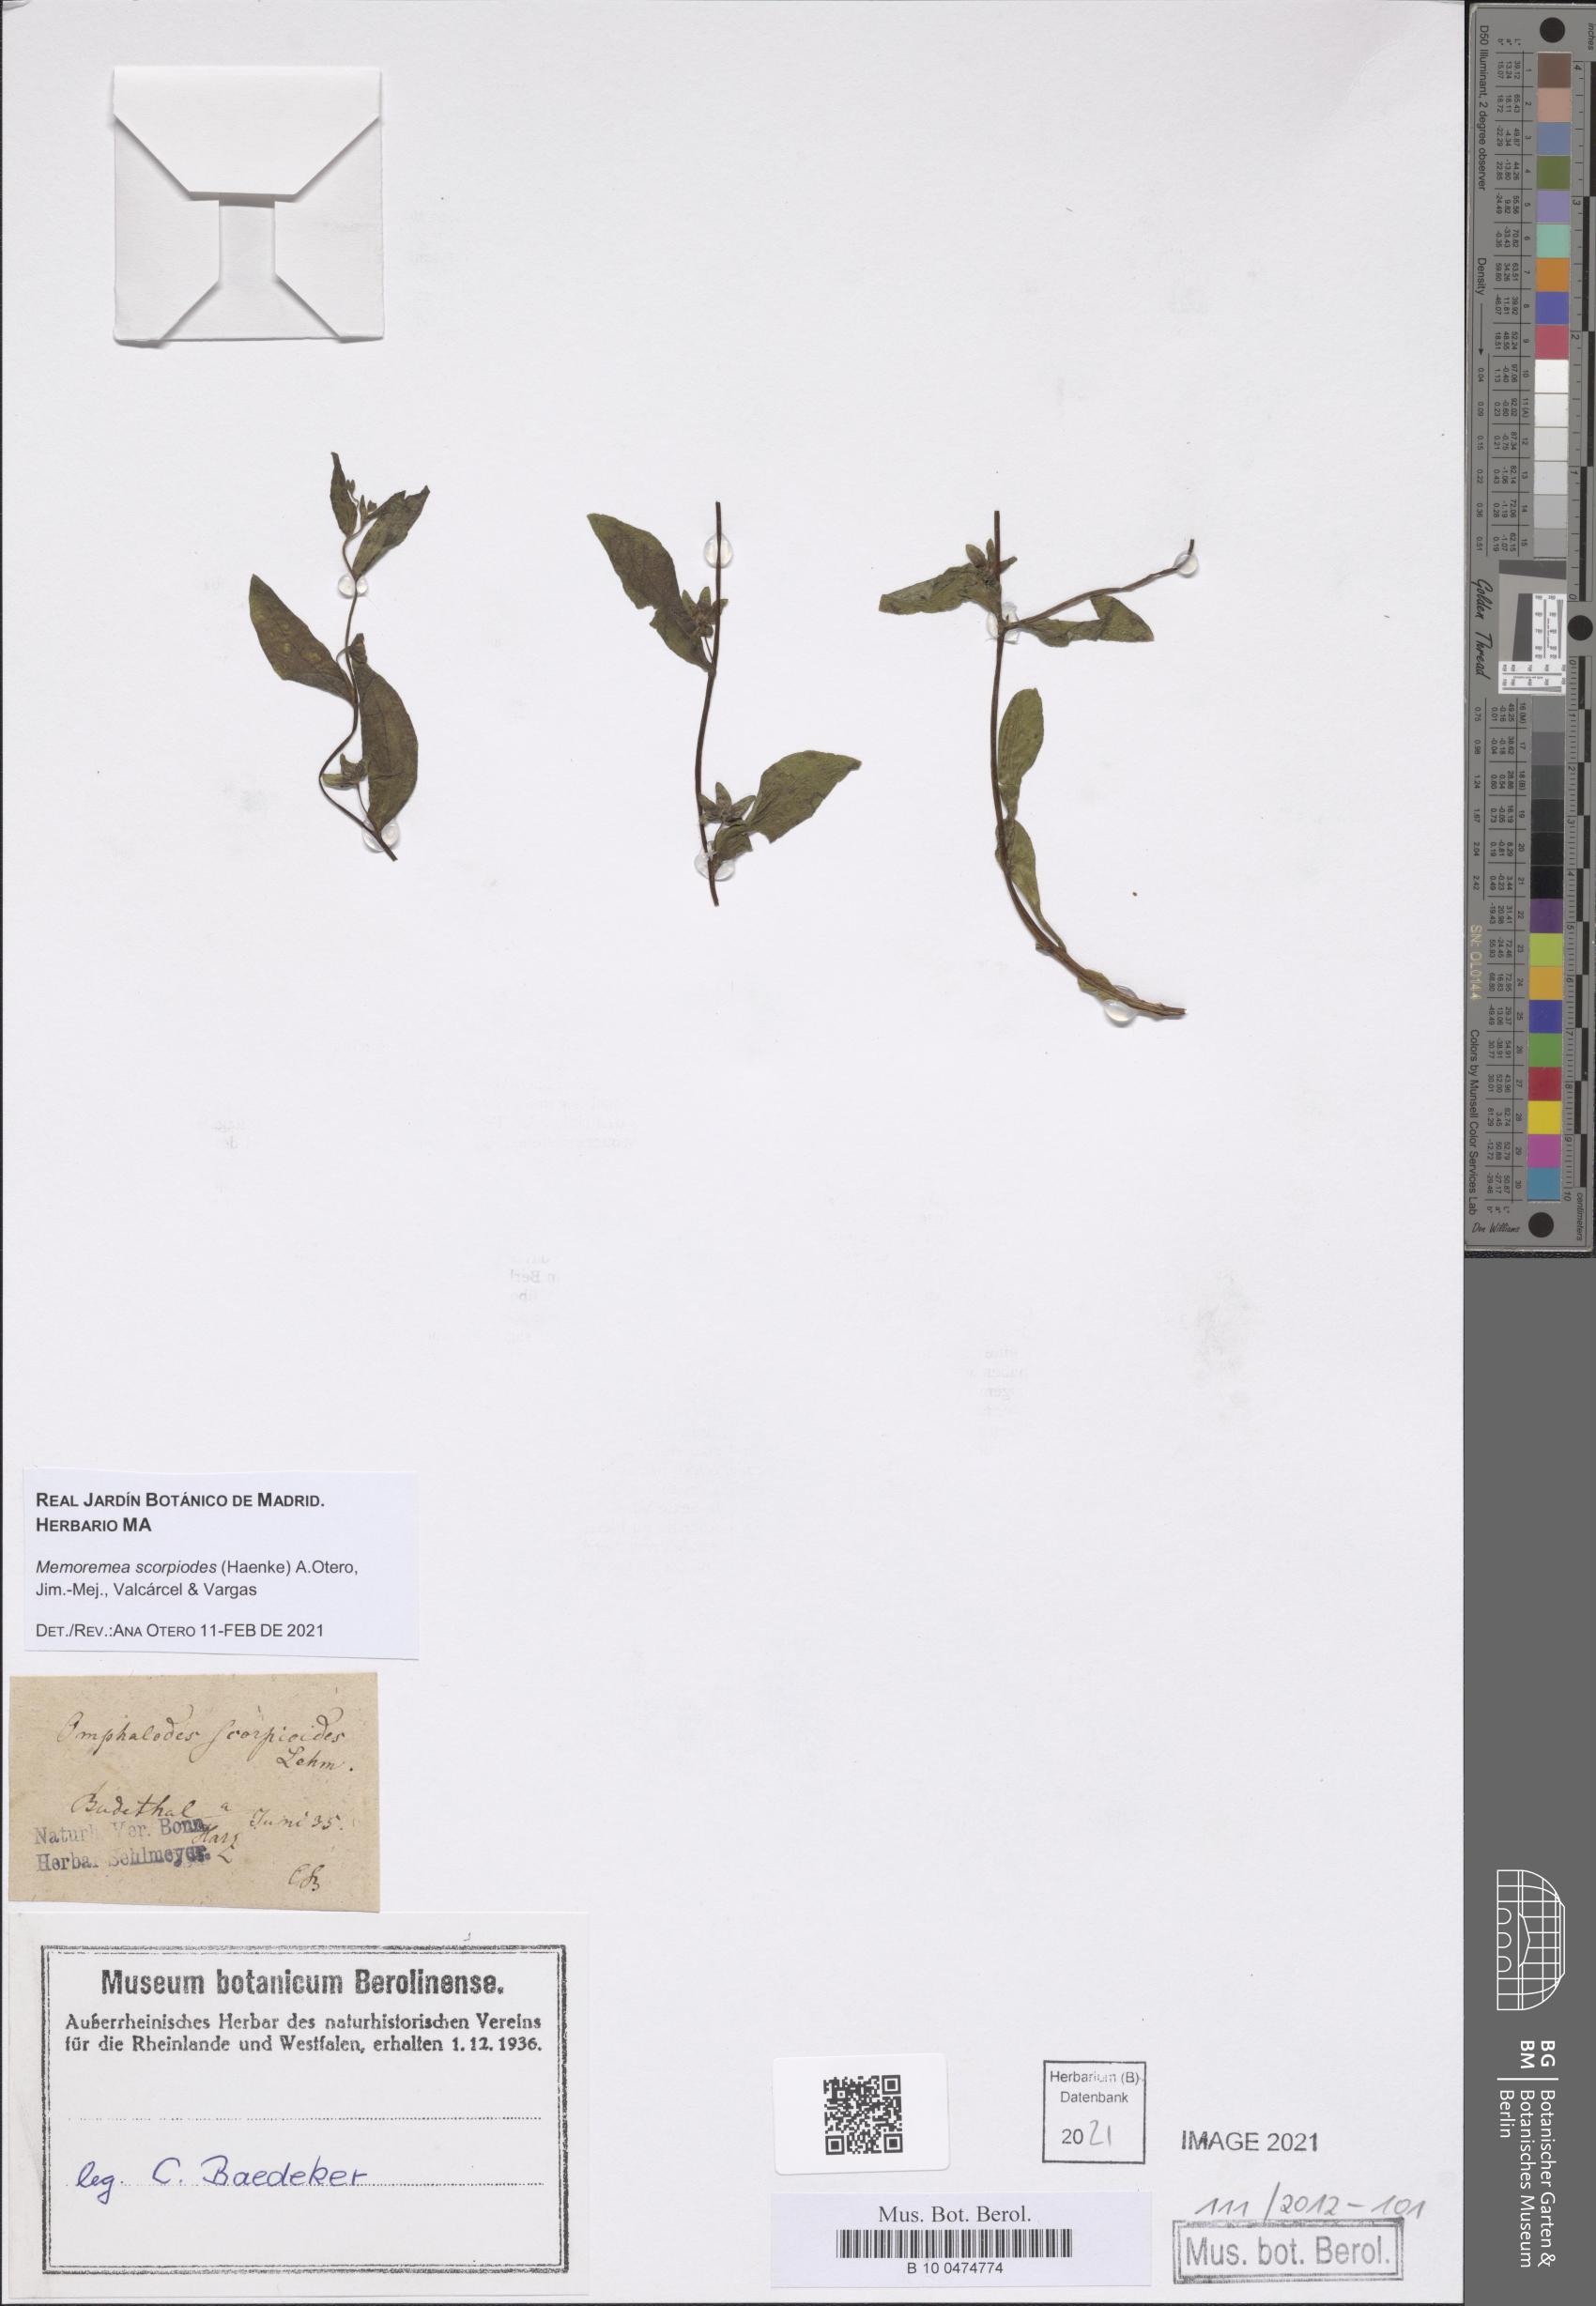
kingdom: Plantae
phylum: Tracheophyta
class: Magnoliopsida
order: Boraginales
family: Boraginaceae
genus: Memoremea
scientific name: Memoremea scorpioides
